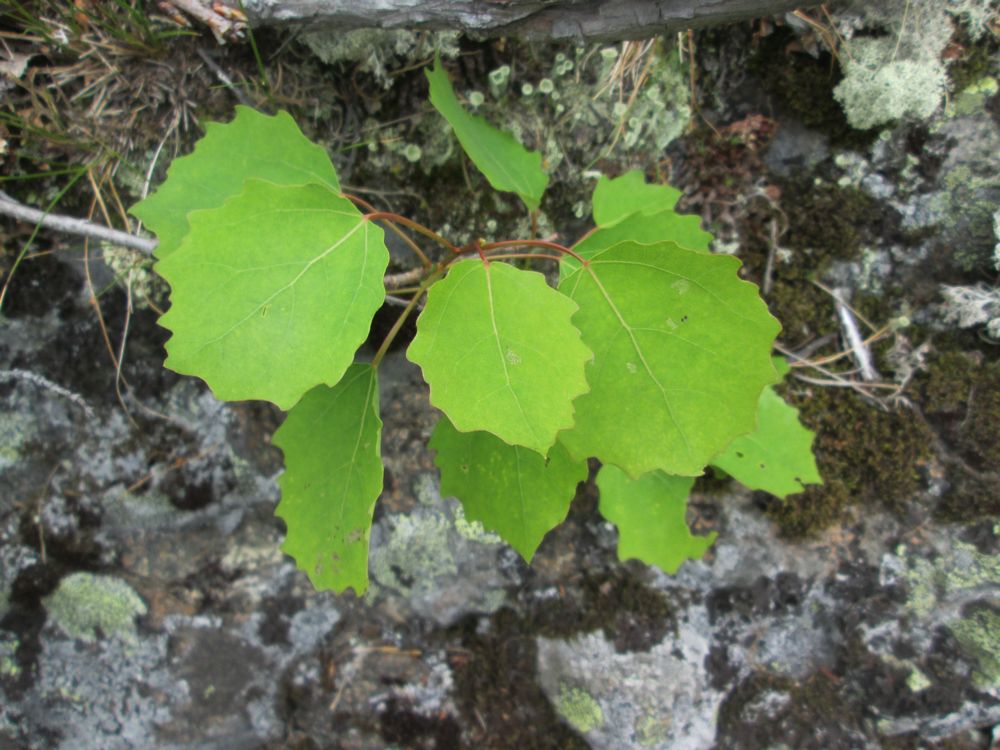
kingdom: Plantae
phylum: Tracheophyta
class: Magnoliopsida
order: Malpighiales
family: Salicaceae
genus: Populus
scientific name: Populus tremula
